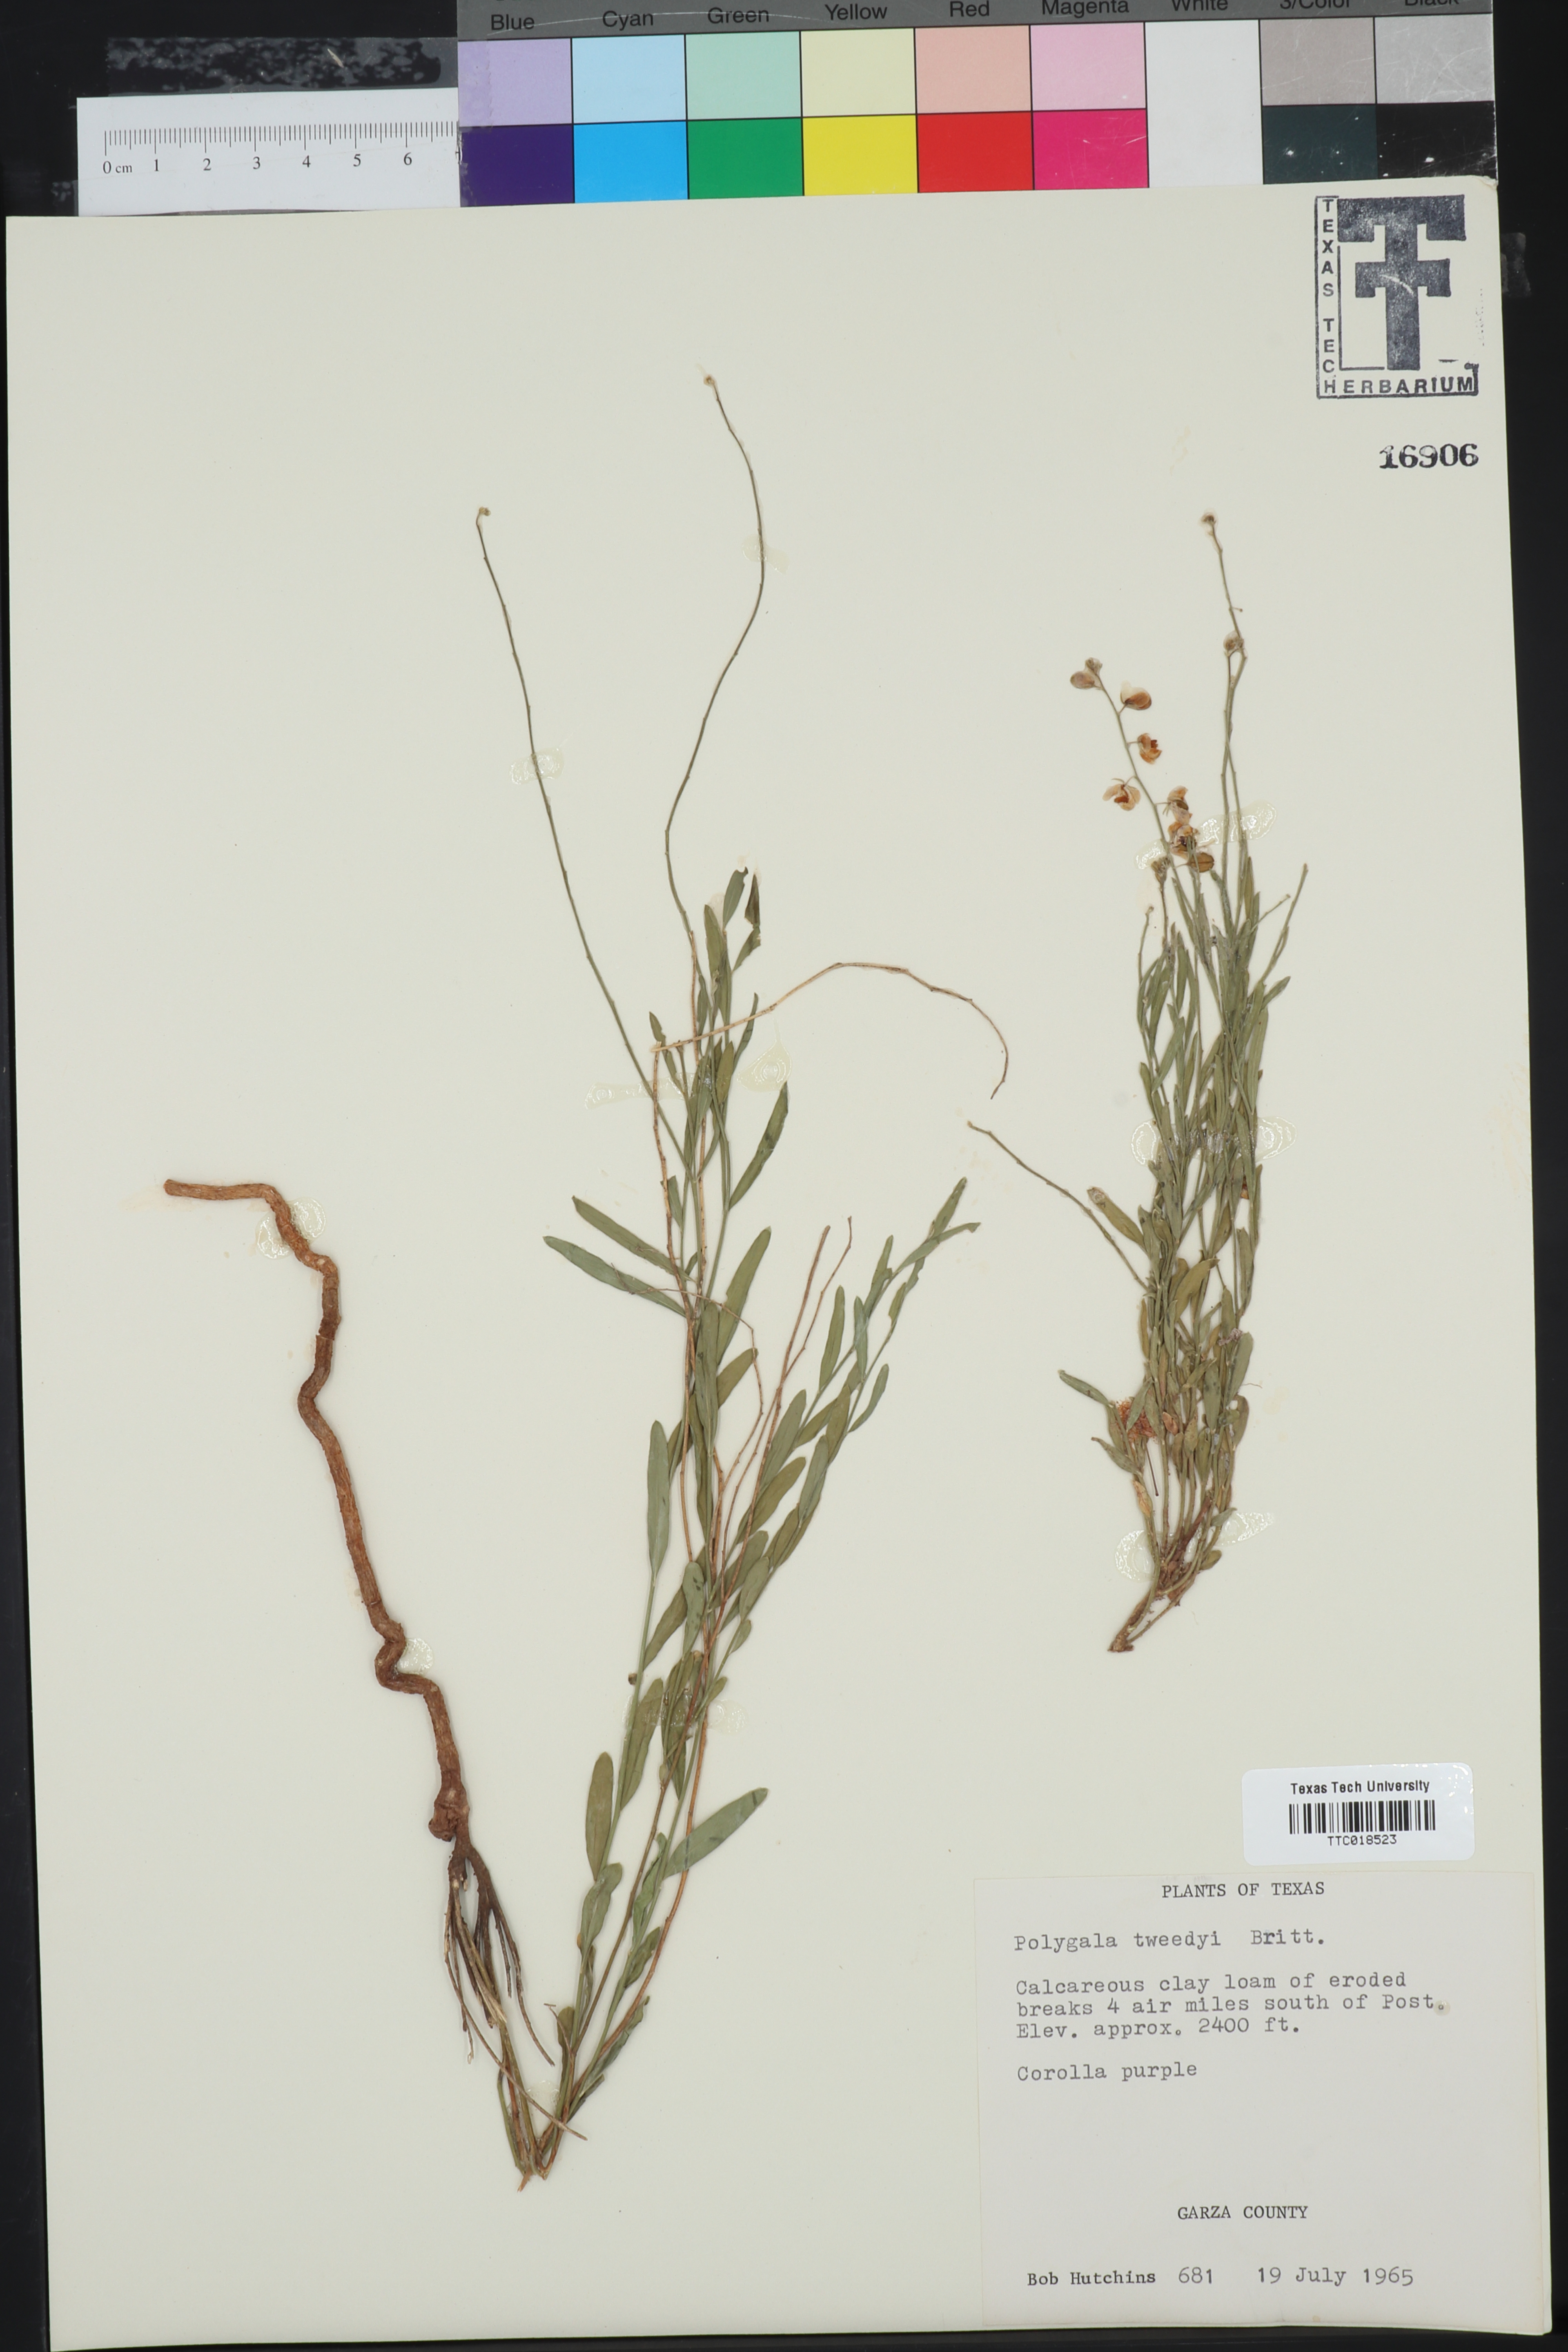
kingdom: Plantae
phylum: Tracheophyta
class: Magnoliopsida
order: Fabales
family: Polygalaceae
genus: Rhinotropis
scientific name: Rhinotropis lindheimeri
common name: Shrubby milkwort
